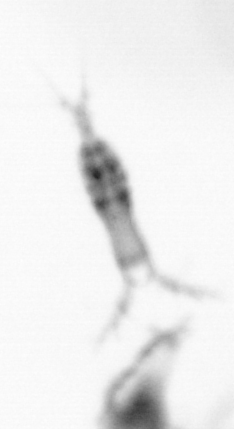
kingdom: Animalia
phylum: Arthropoda
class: Copepoda
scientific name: Copepoda
